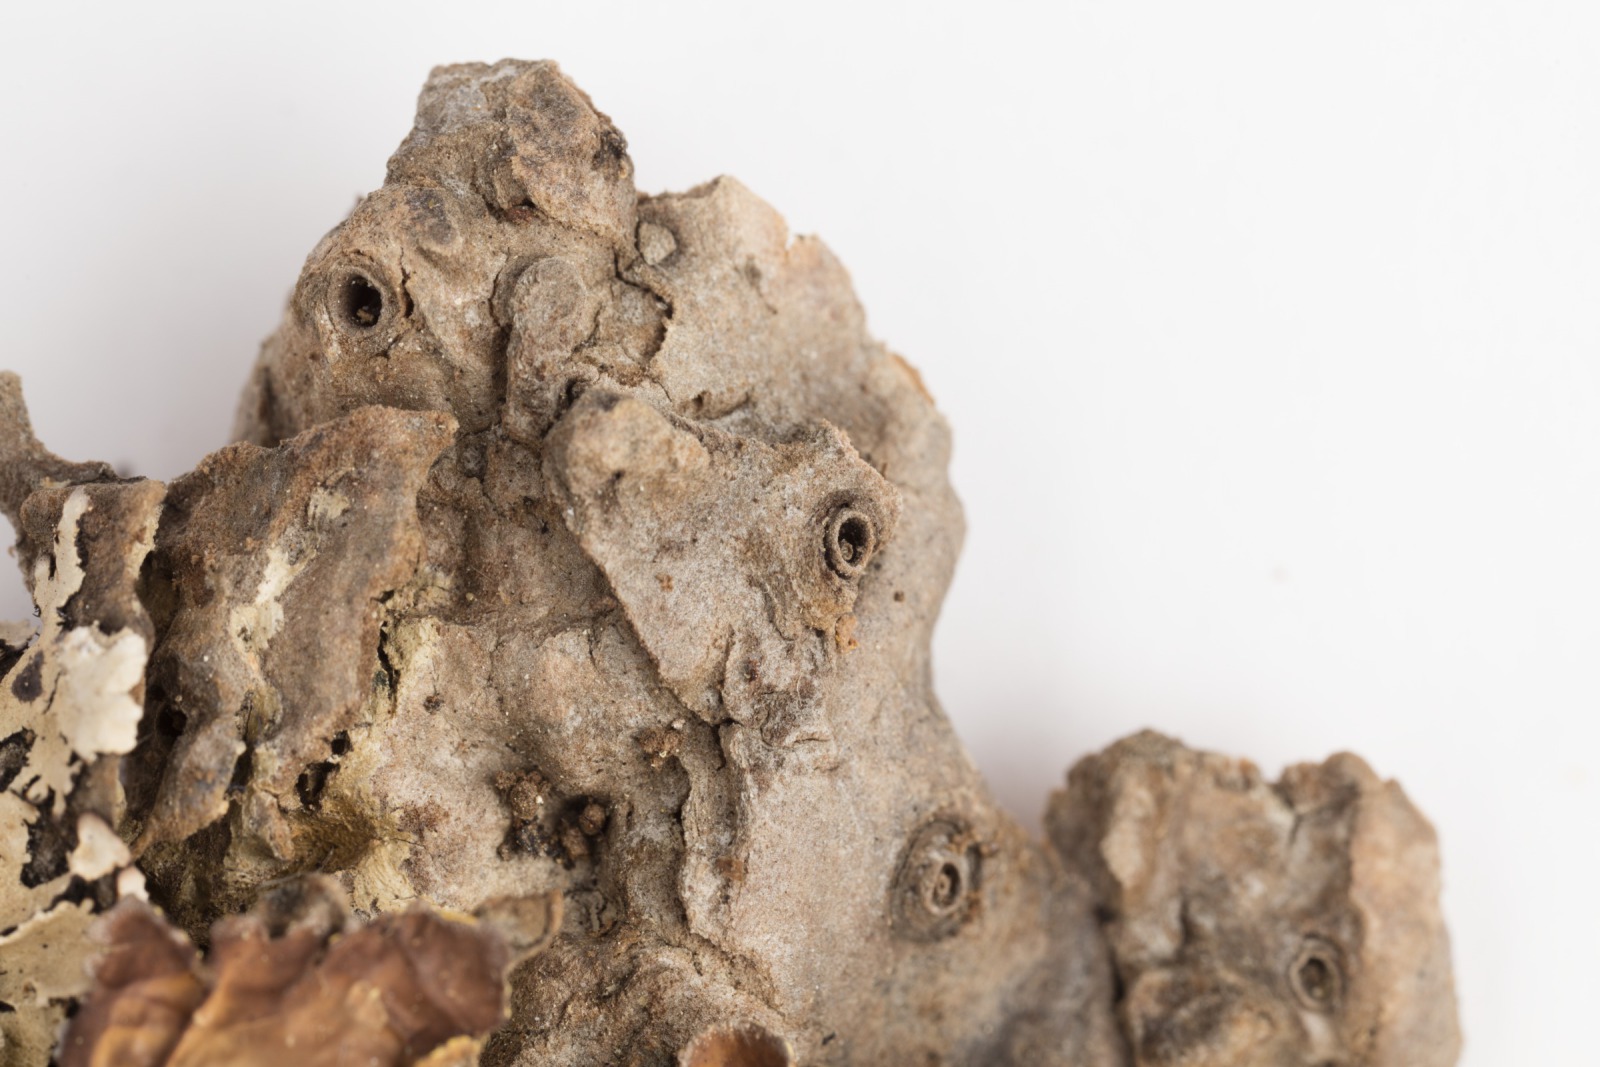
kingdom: Fungi
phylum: Ascomycota
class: Lecanoromycetes
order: Peltigerales
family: Lobariaceae
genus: Pseudocyphellaria
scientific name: Pseudocyphellaria carpoloma
